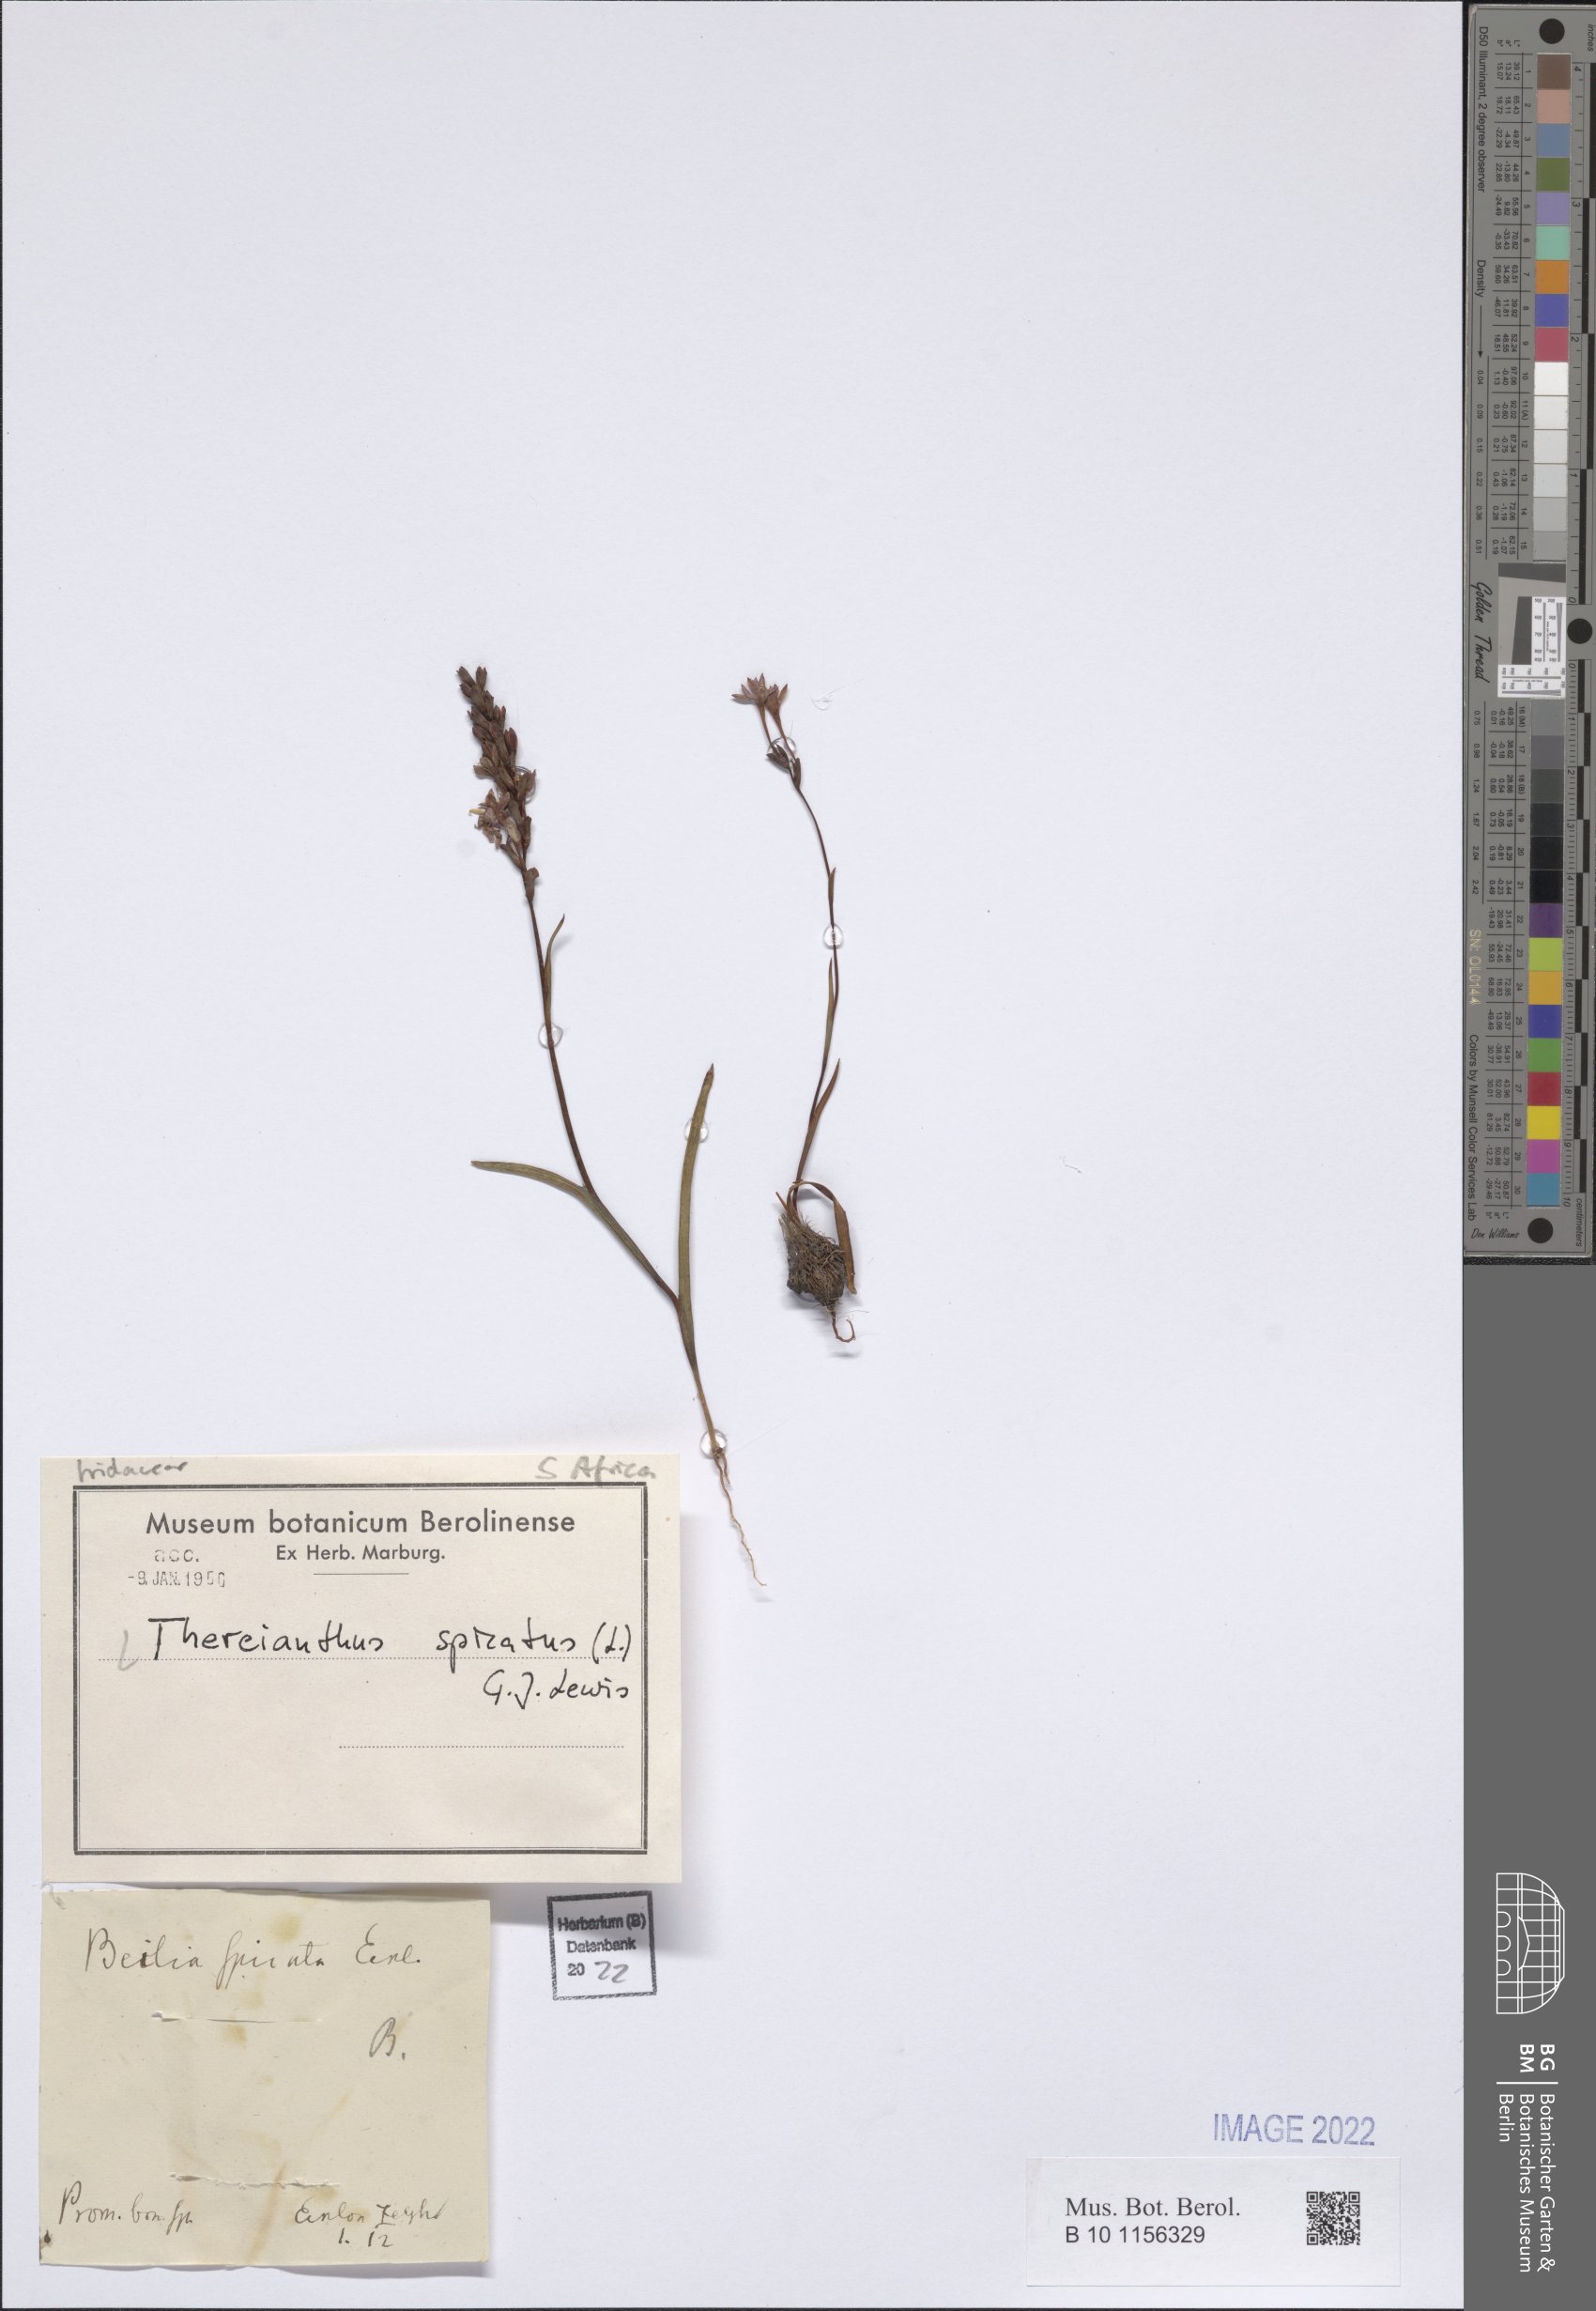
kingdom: Plantae
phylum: Tracheophyta
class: Liliopsida
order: Asparagales
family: Iridaceae
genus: Thereianthus
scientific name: Thereianthus spicatus
